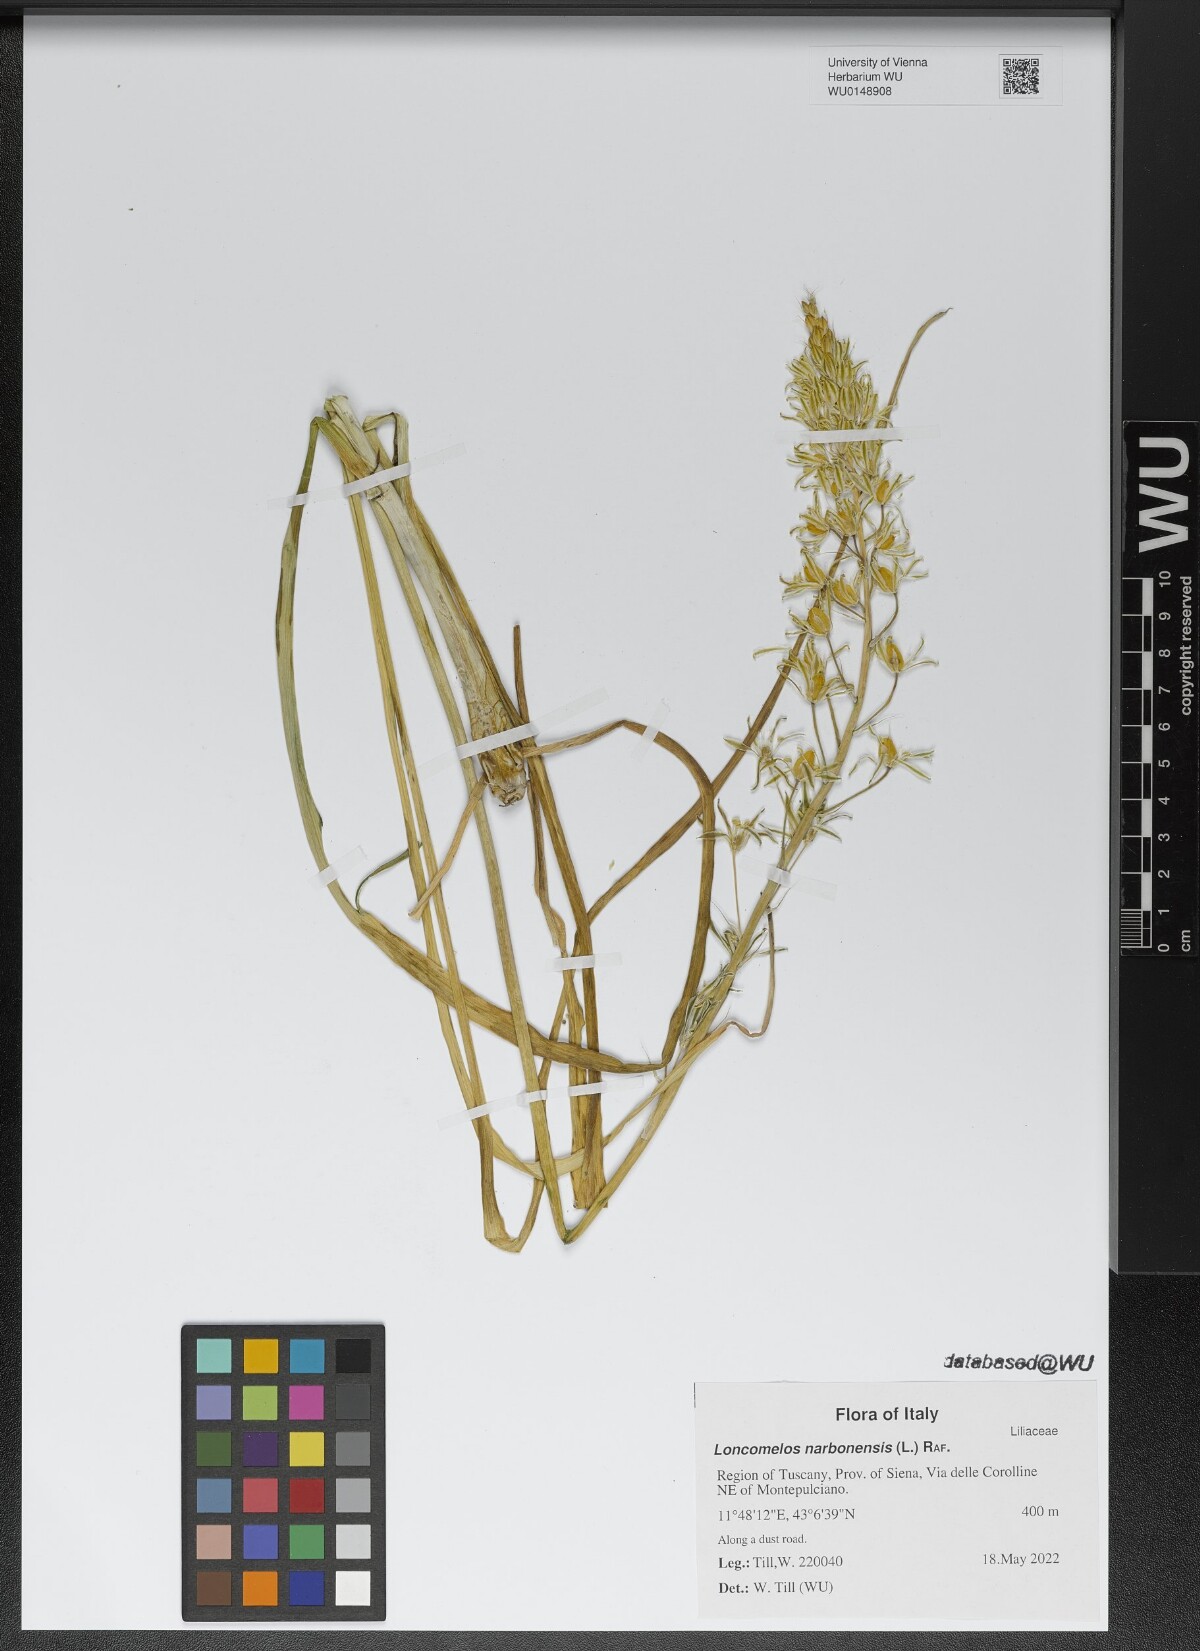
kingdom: Plantae
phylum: Tracheophyta
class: Liliopsida
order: Asparagales
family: Asparagaceae
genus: Ornithogalum
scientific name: Ornithogalum narbonense
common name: Bath-asparagus
